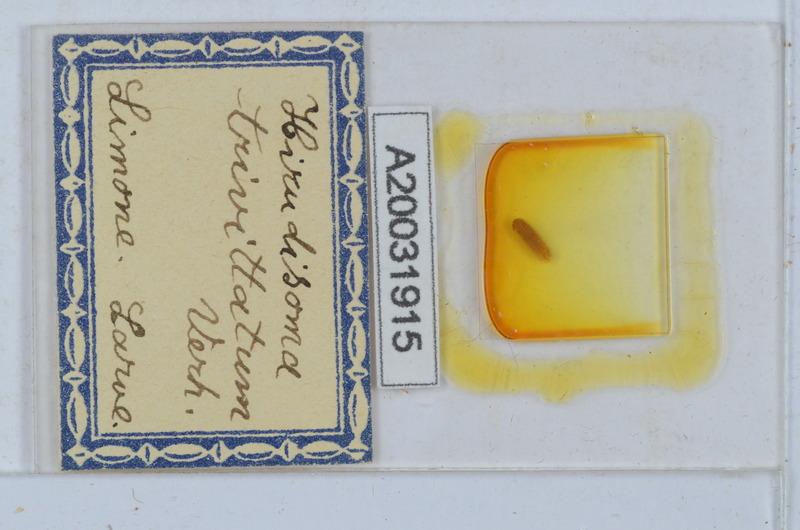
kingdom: Animalia
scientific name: Animalia
